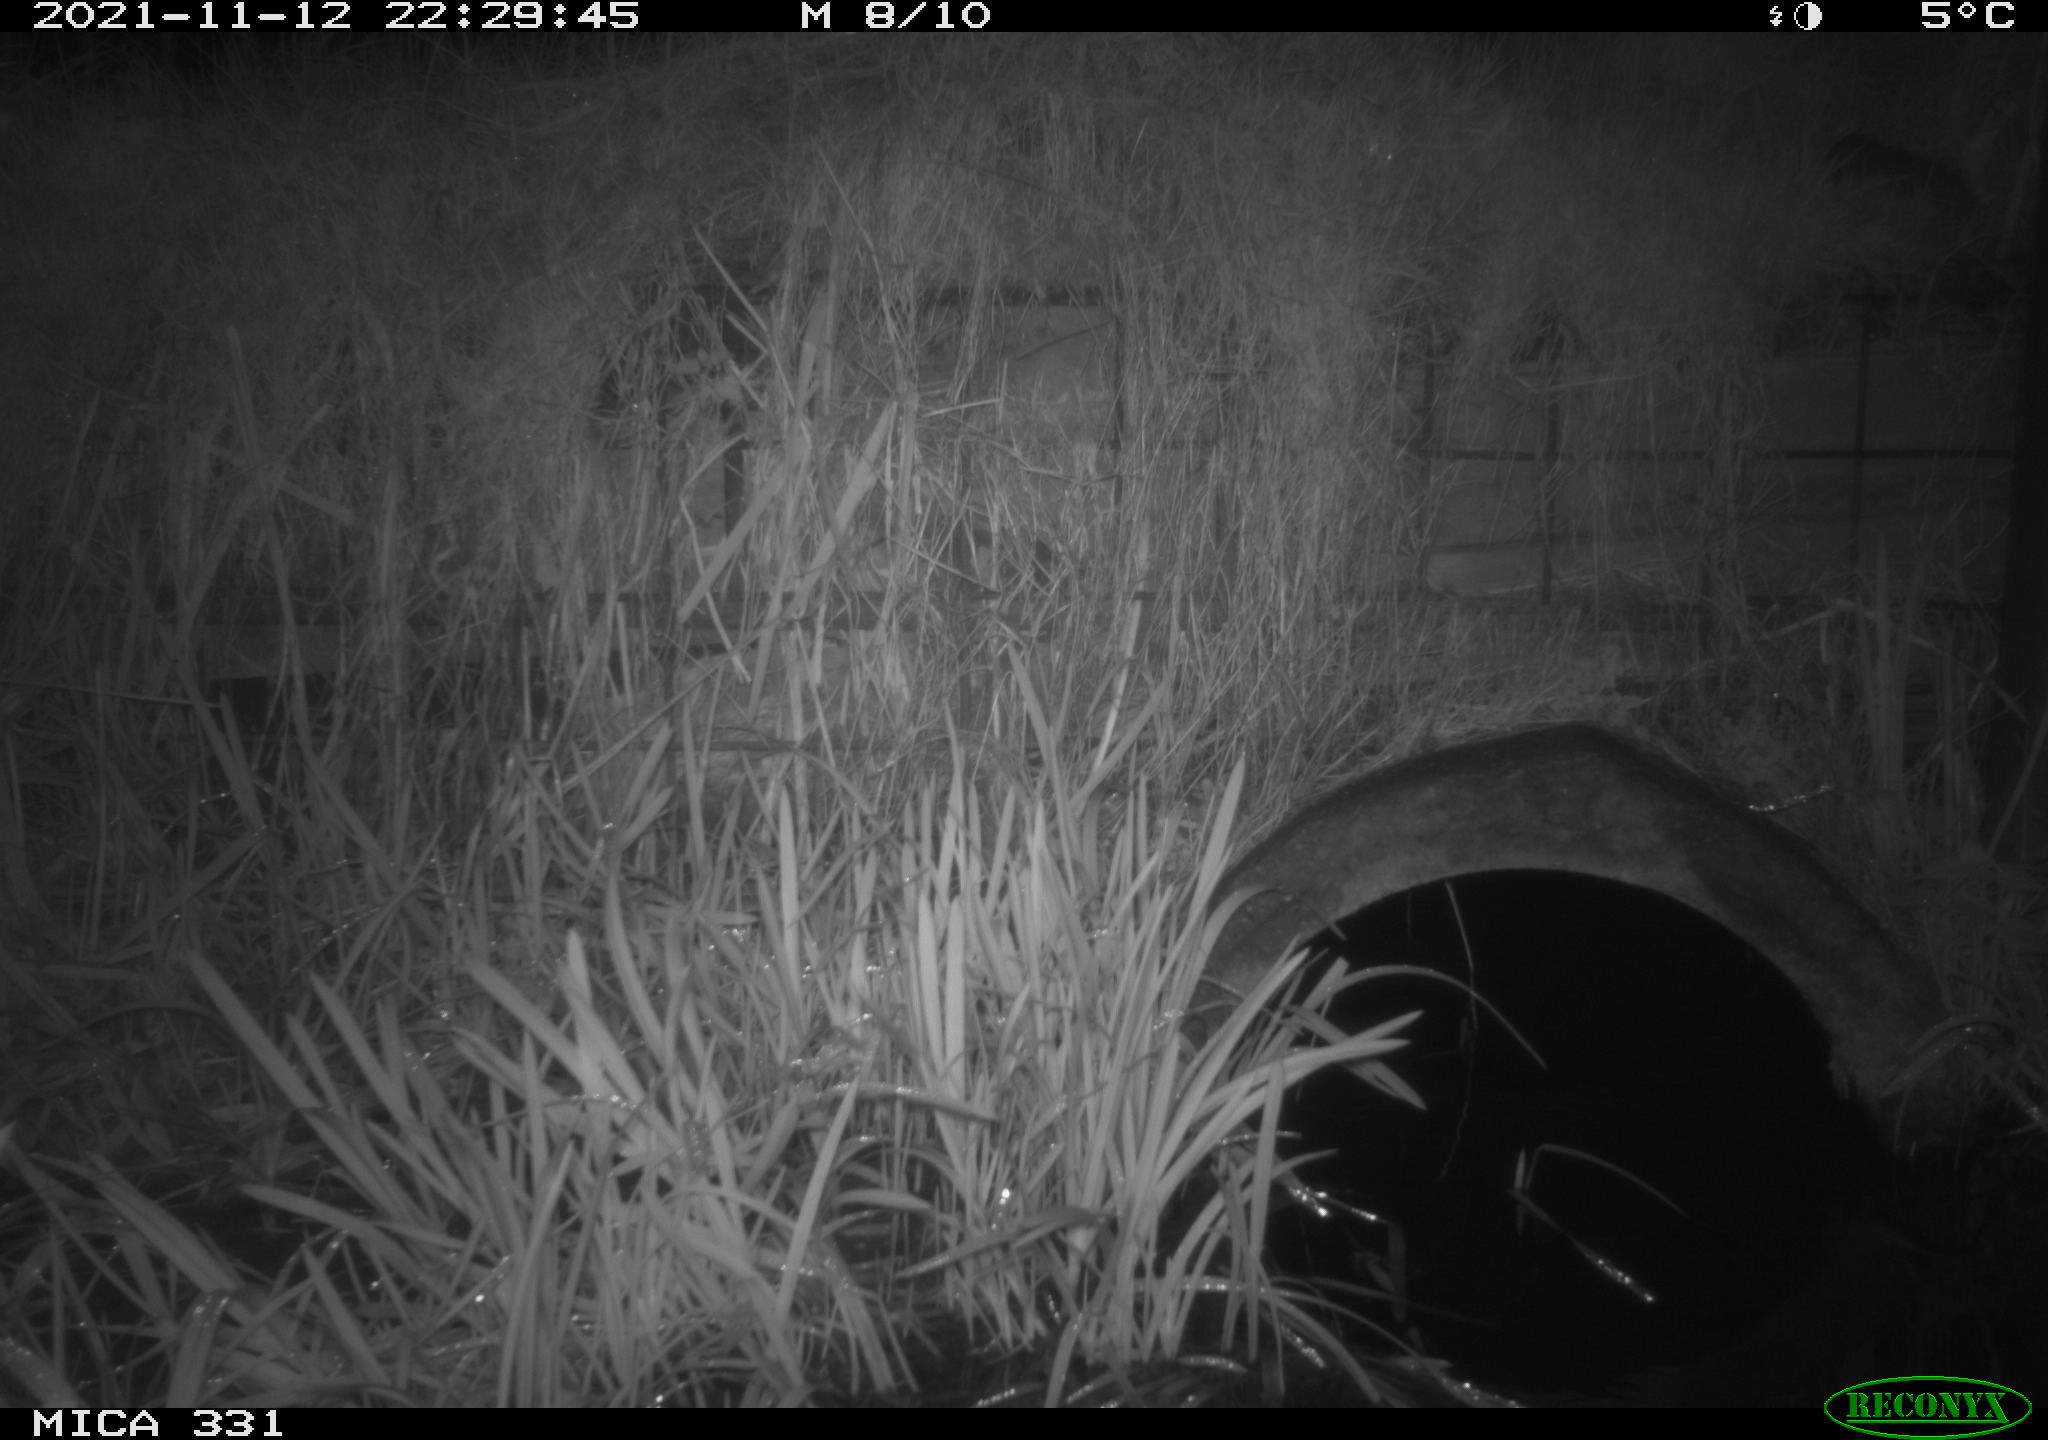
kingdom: Animalia
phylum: Chordata
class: Mammalia
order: Rodentia
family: Muridae
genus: Rattus
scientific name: Rattus norvegicus
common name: Brown rat
